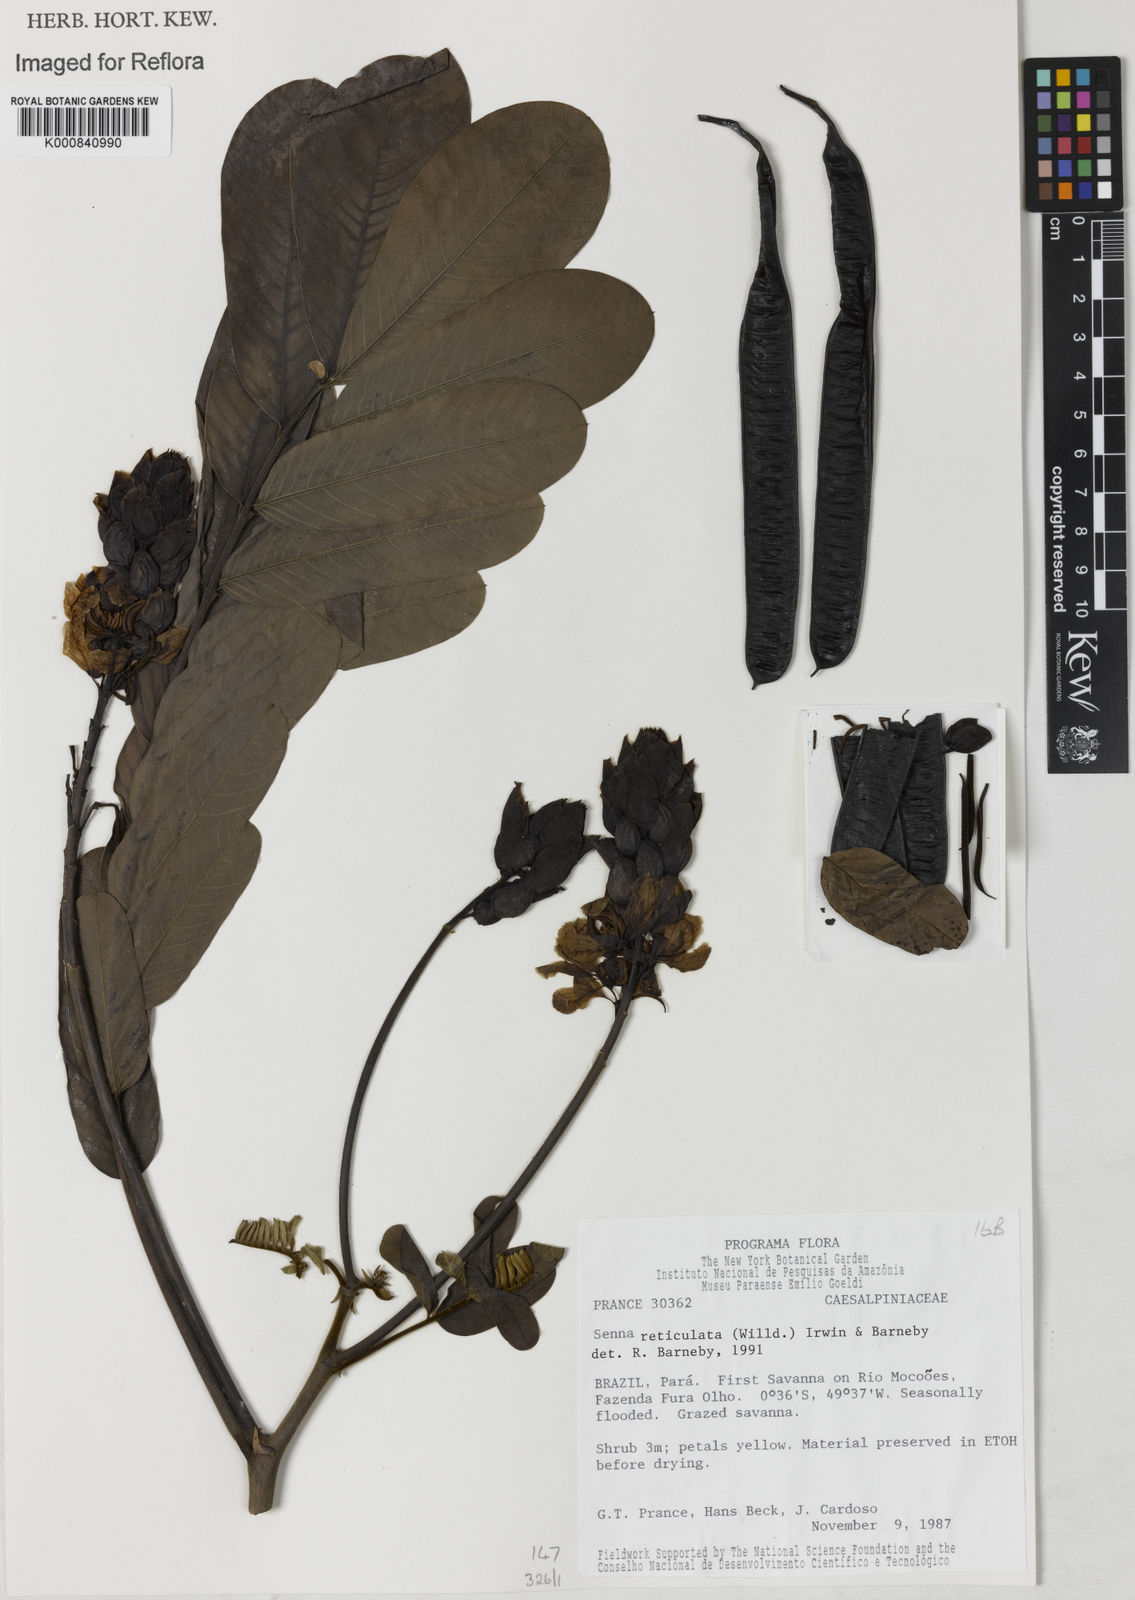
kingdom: Plantae
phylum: Tracheophyta
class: Magnoliopsida
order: Fabales
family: Fabaceae
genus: Senna
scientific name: Senna reticulata
